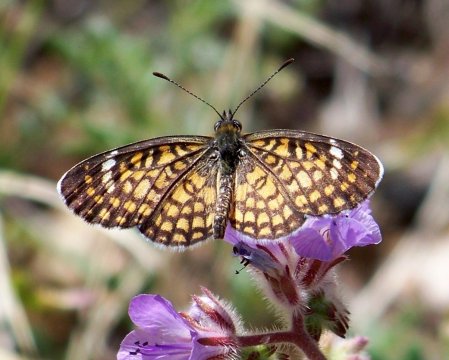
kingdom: Animalia
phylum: Arthropoda
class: Insecta
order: Lepidoptera
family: Nymphalidae
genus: Dymasia
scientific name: Dymasia dymas
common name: Tiny Checkerspot
